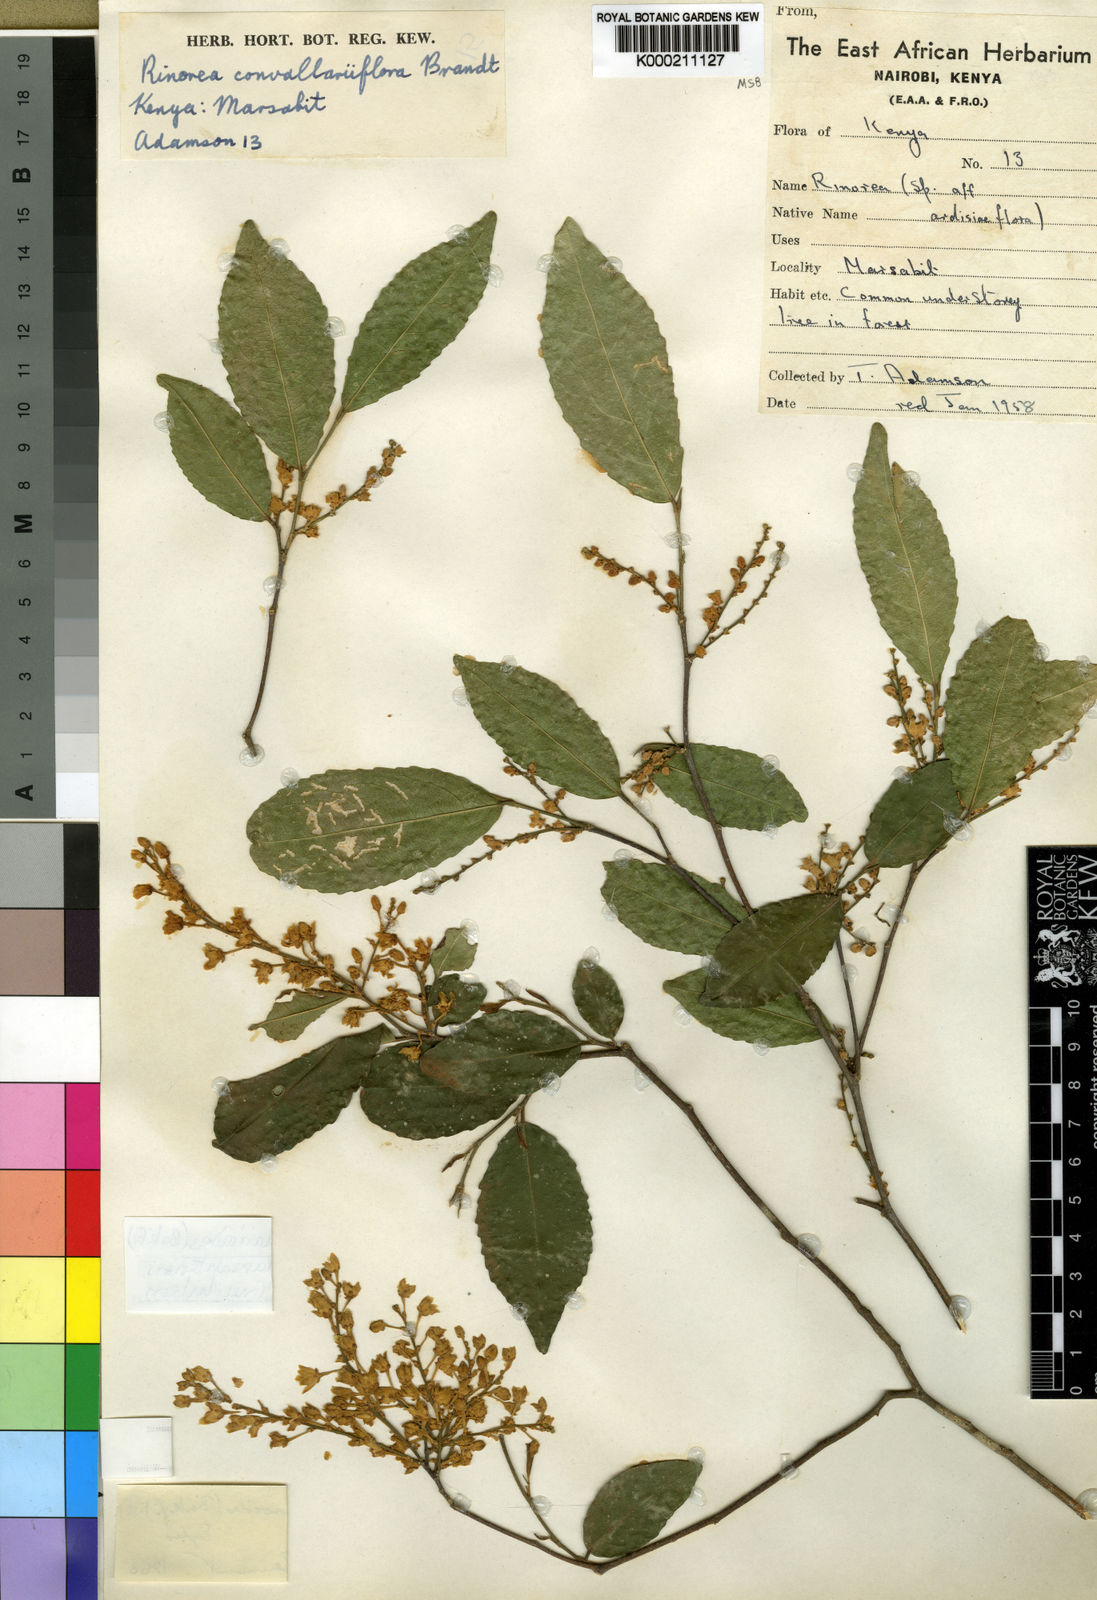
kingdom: Plantae
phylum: Tracheophyta
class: Magnoliopsida
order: Malpighiales
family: Violaceae
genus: Rinorea
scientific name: Rinorea convallarioides
